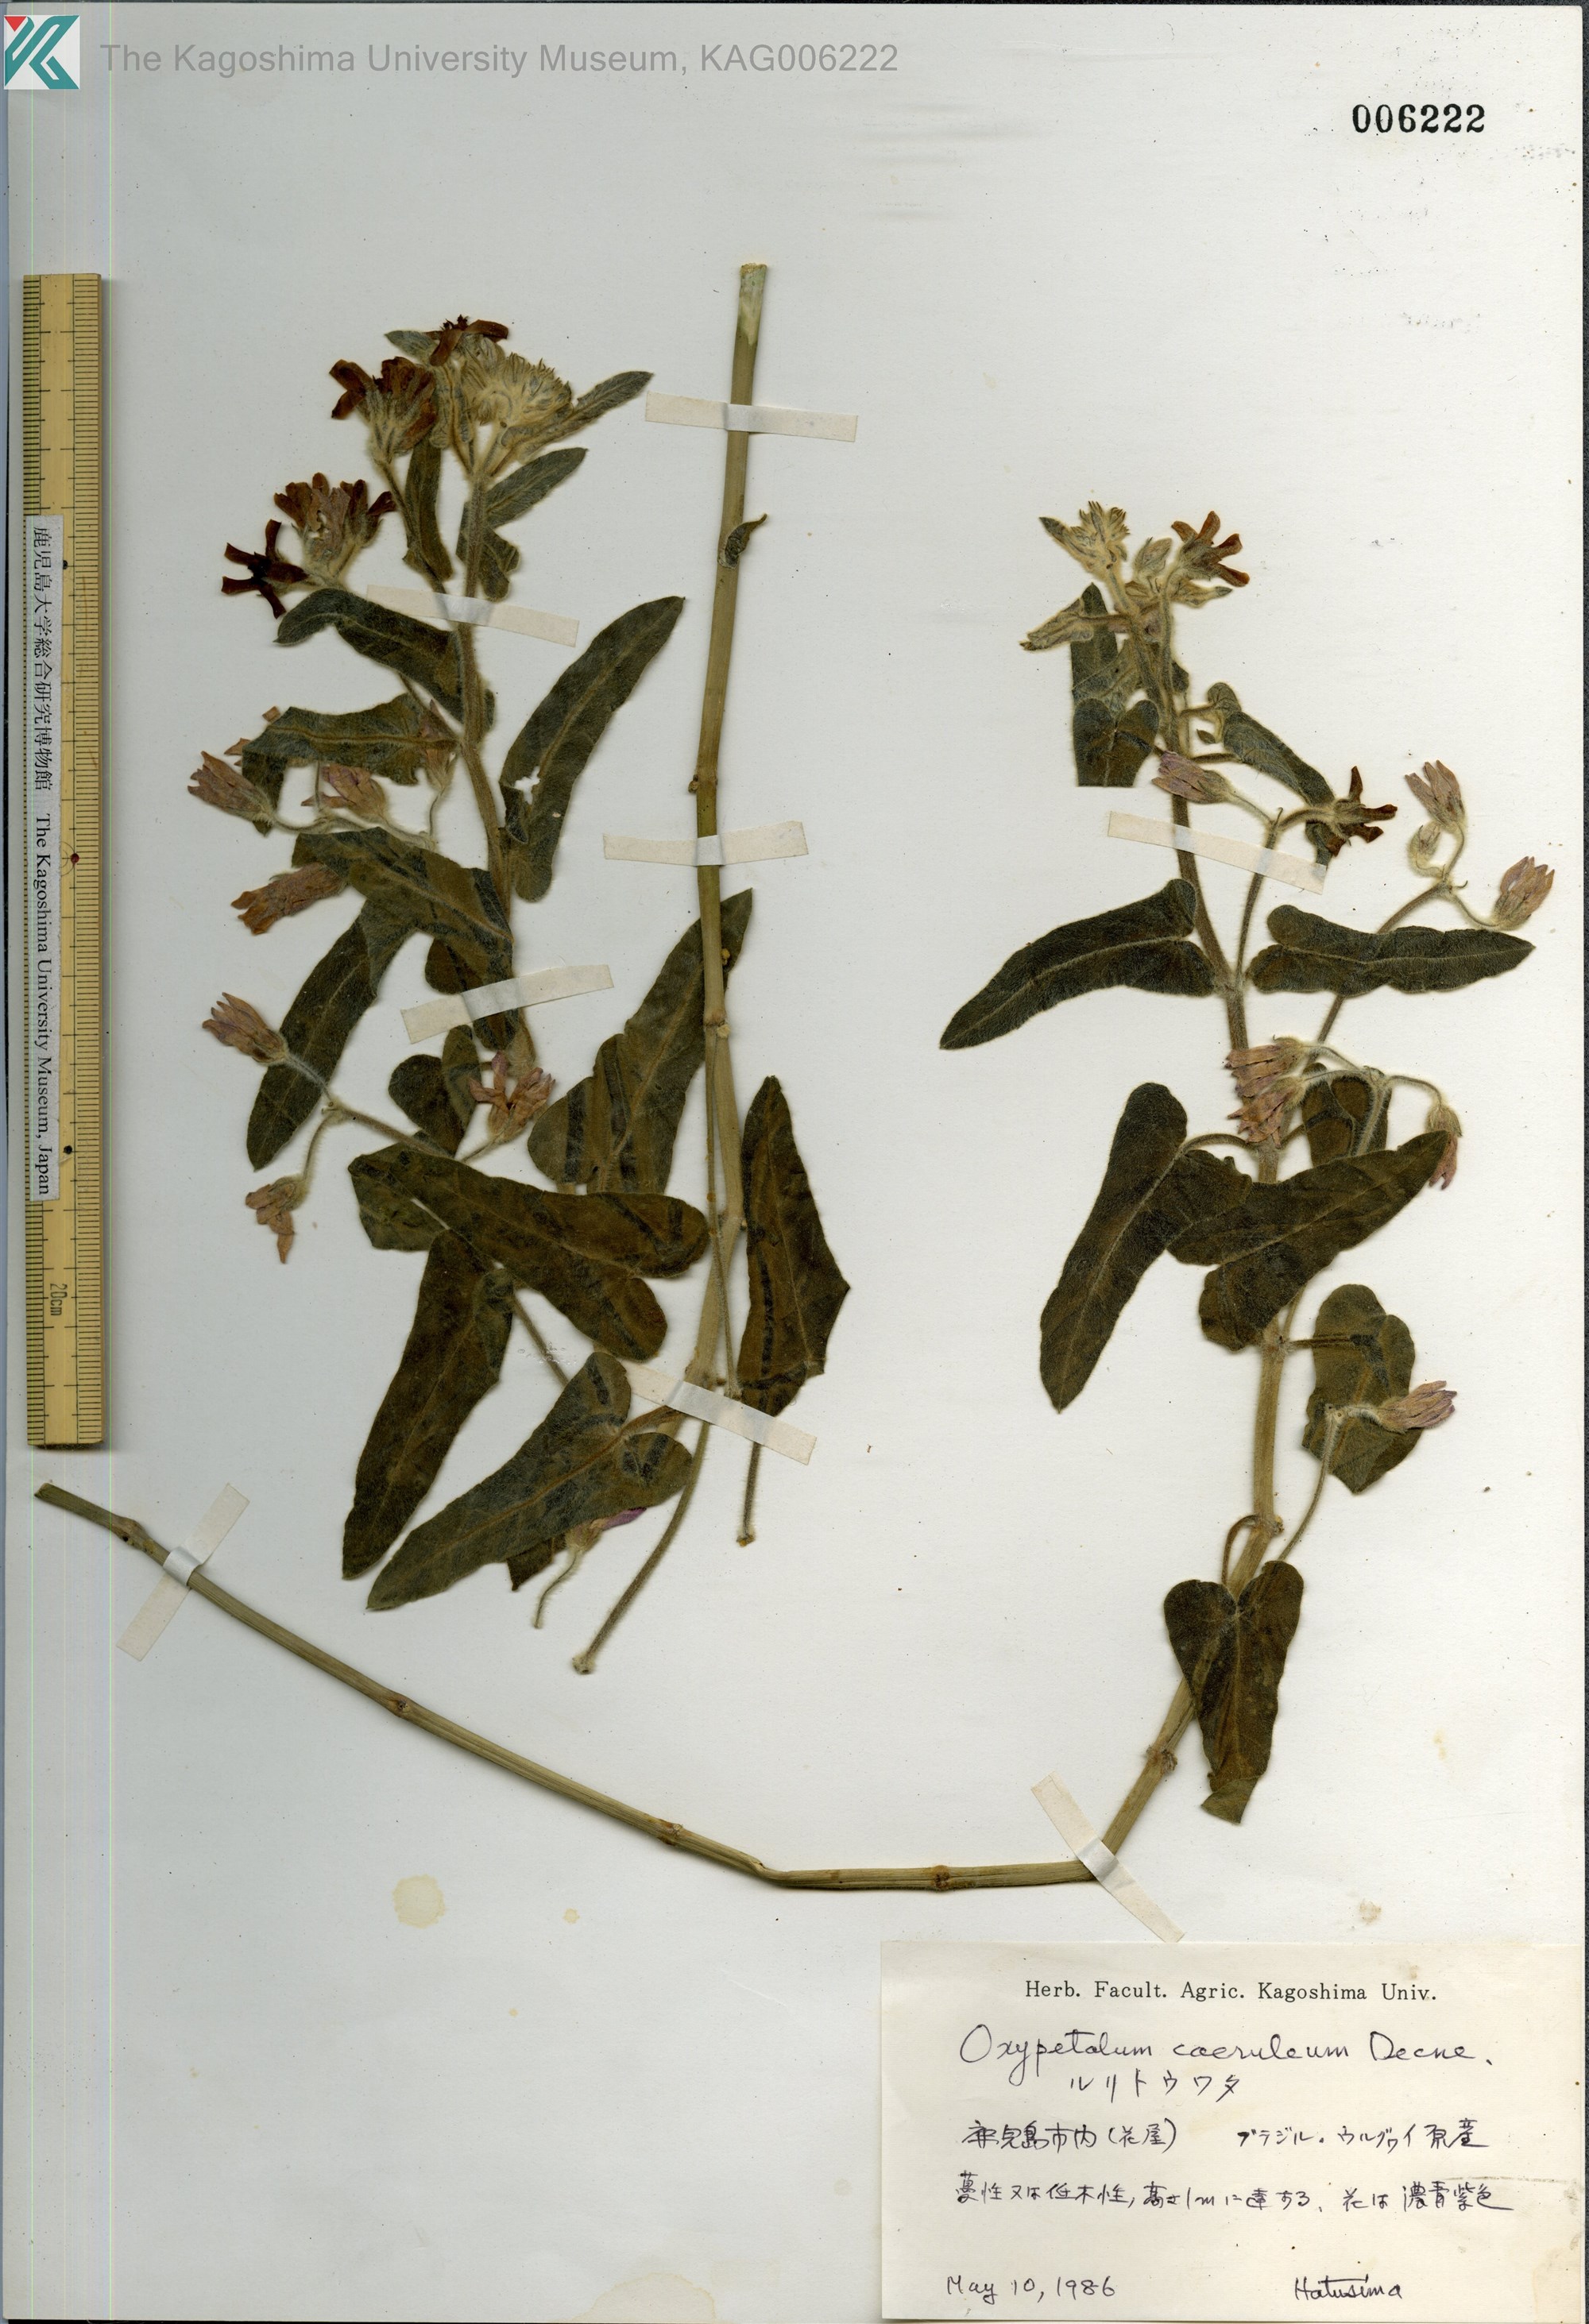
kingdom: Plantae
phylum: Tracheophyta
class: Magnoliopsida
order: Gentianales
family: Apocynaceae
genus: Oxypetalum
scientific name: Oxypetalum coeruleum
